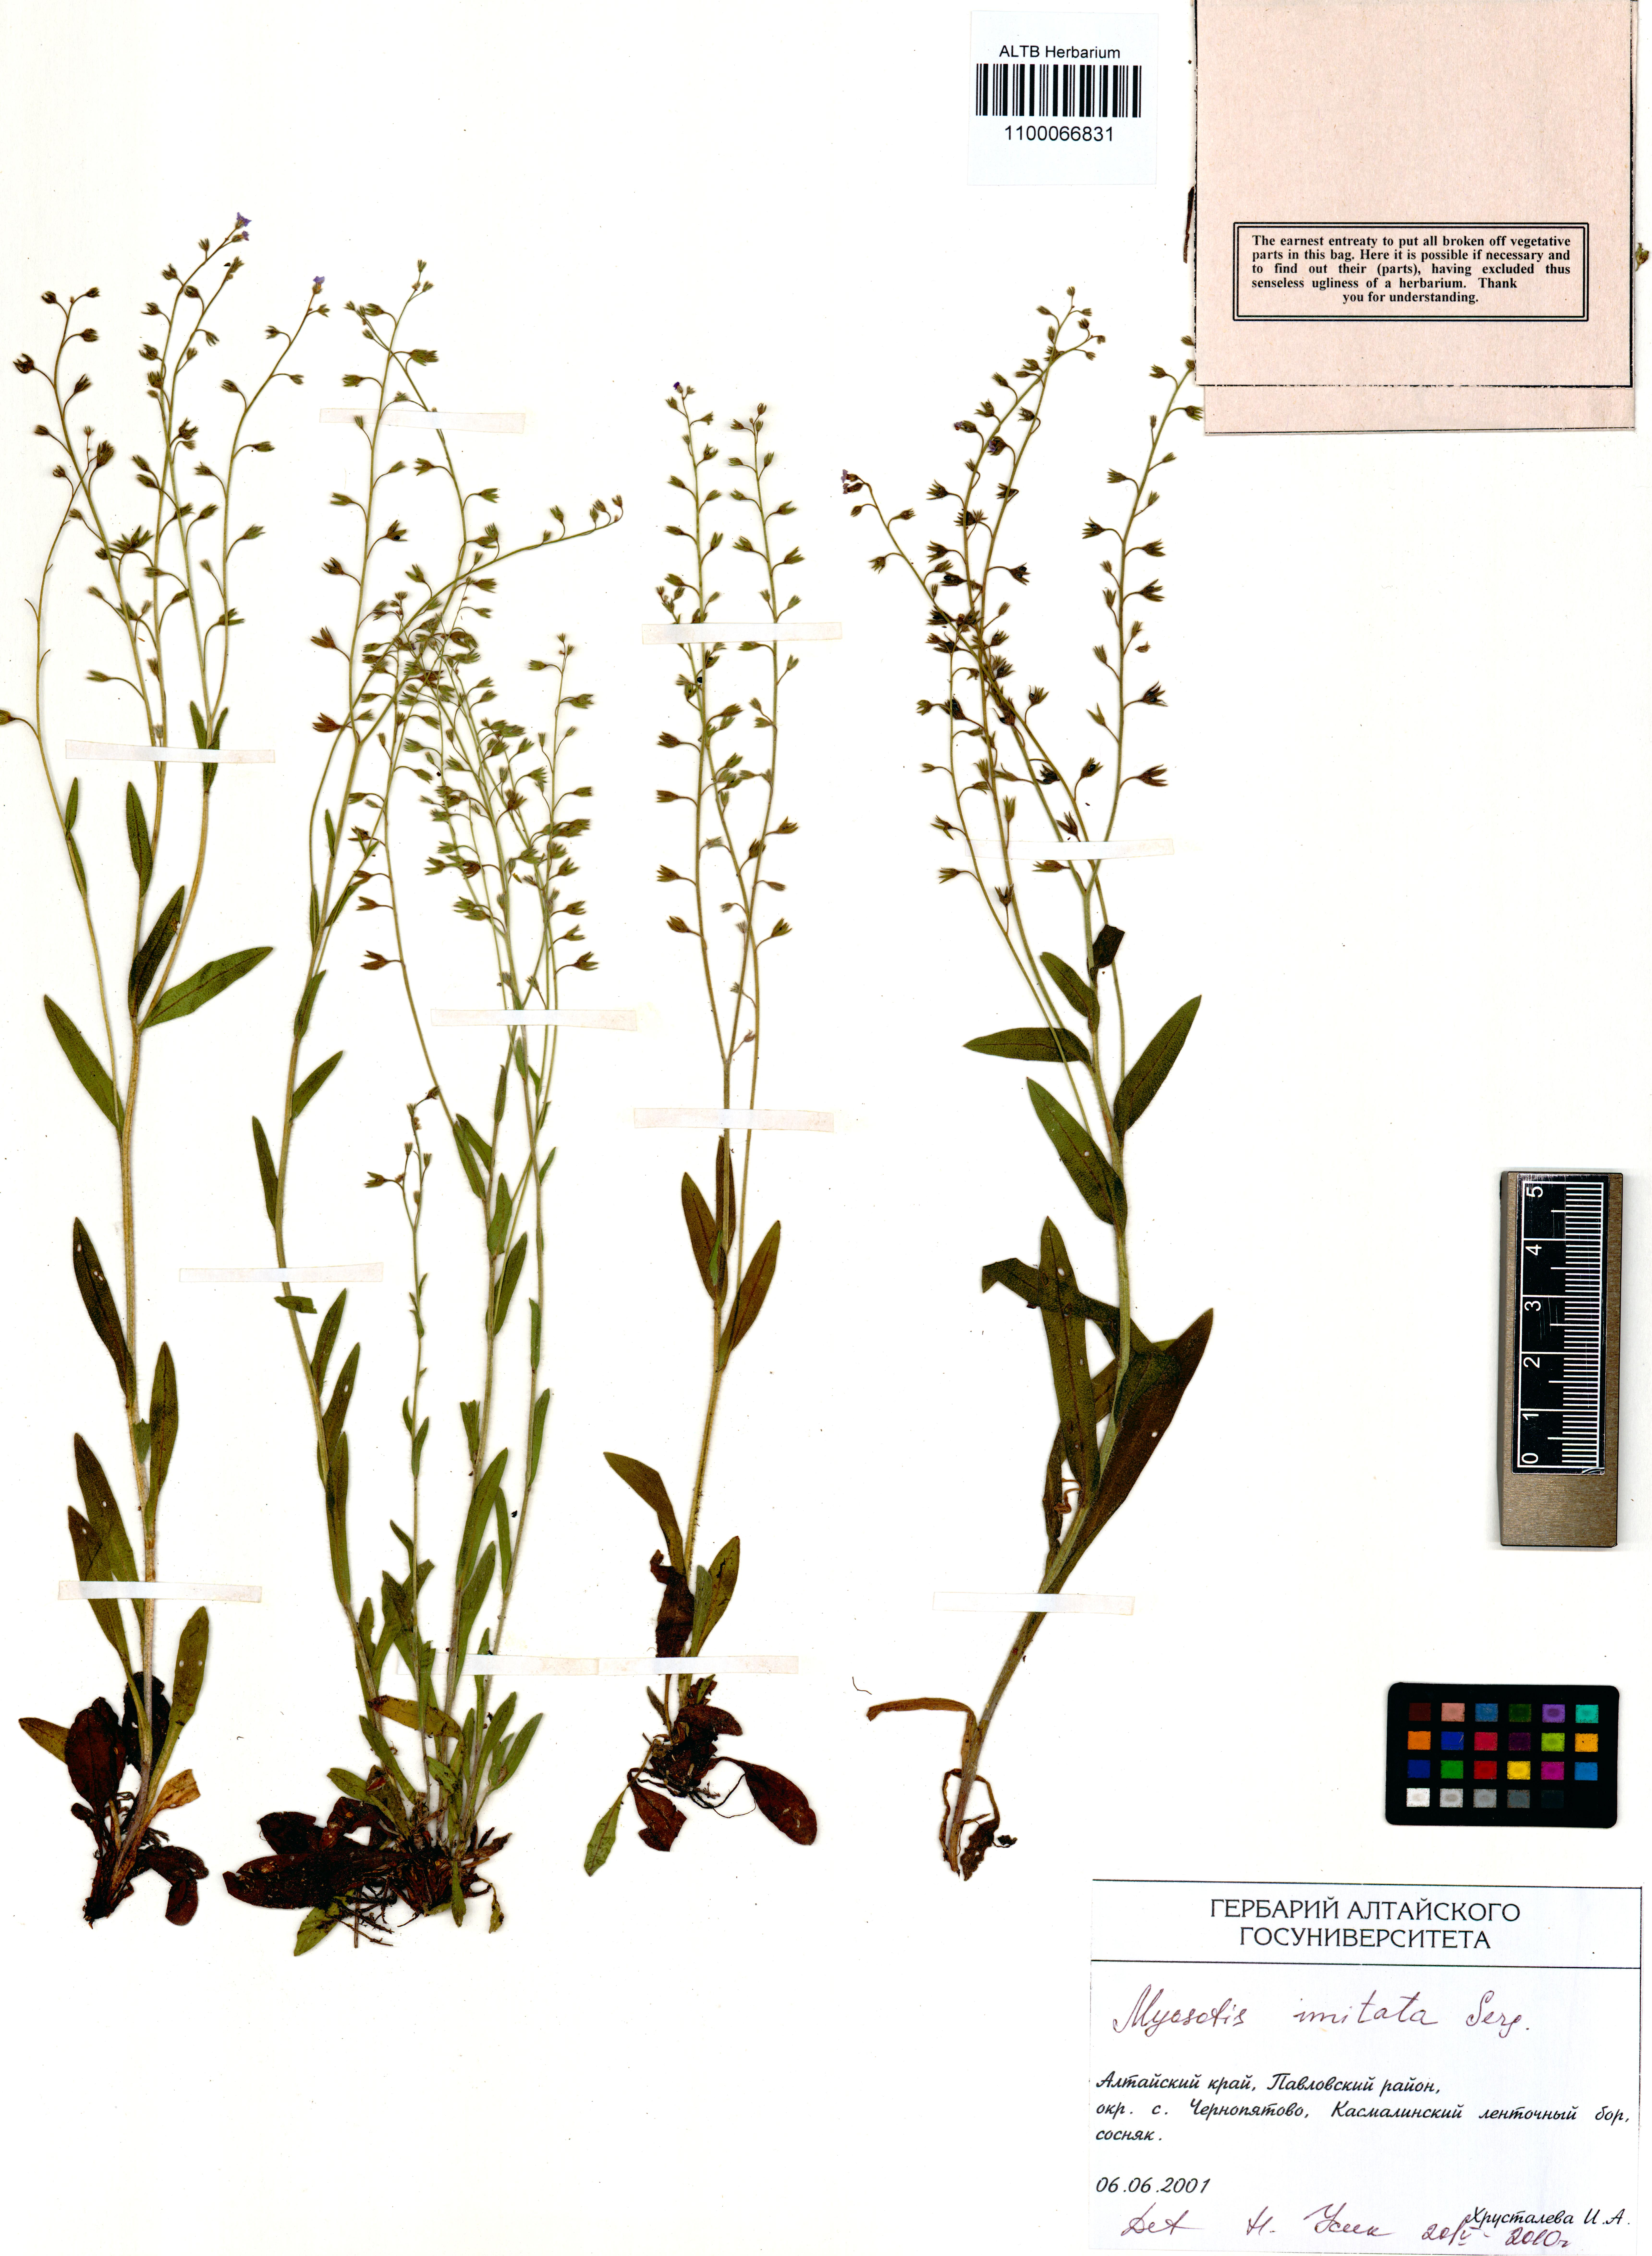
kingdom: Plantae
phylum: Tracheophyta
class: Magnoliopsida
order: Boraginales
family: Boraginaceae
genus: Myosotis
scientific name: Myosotis imitata
